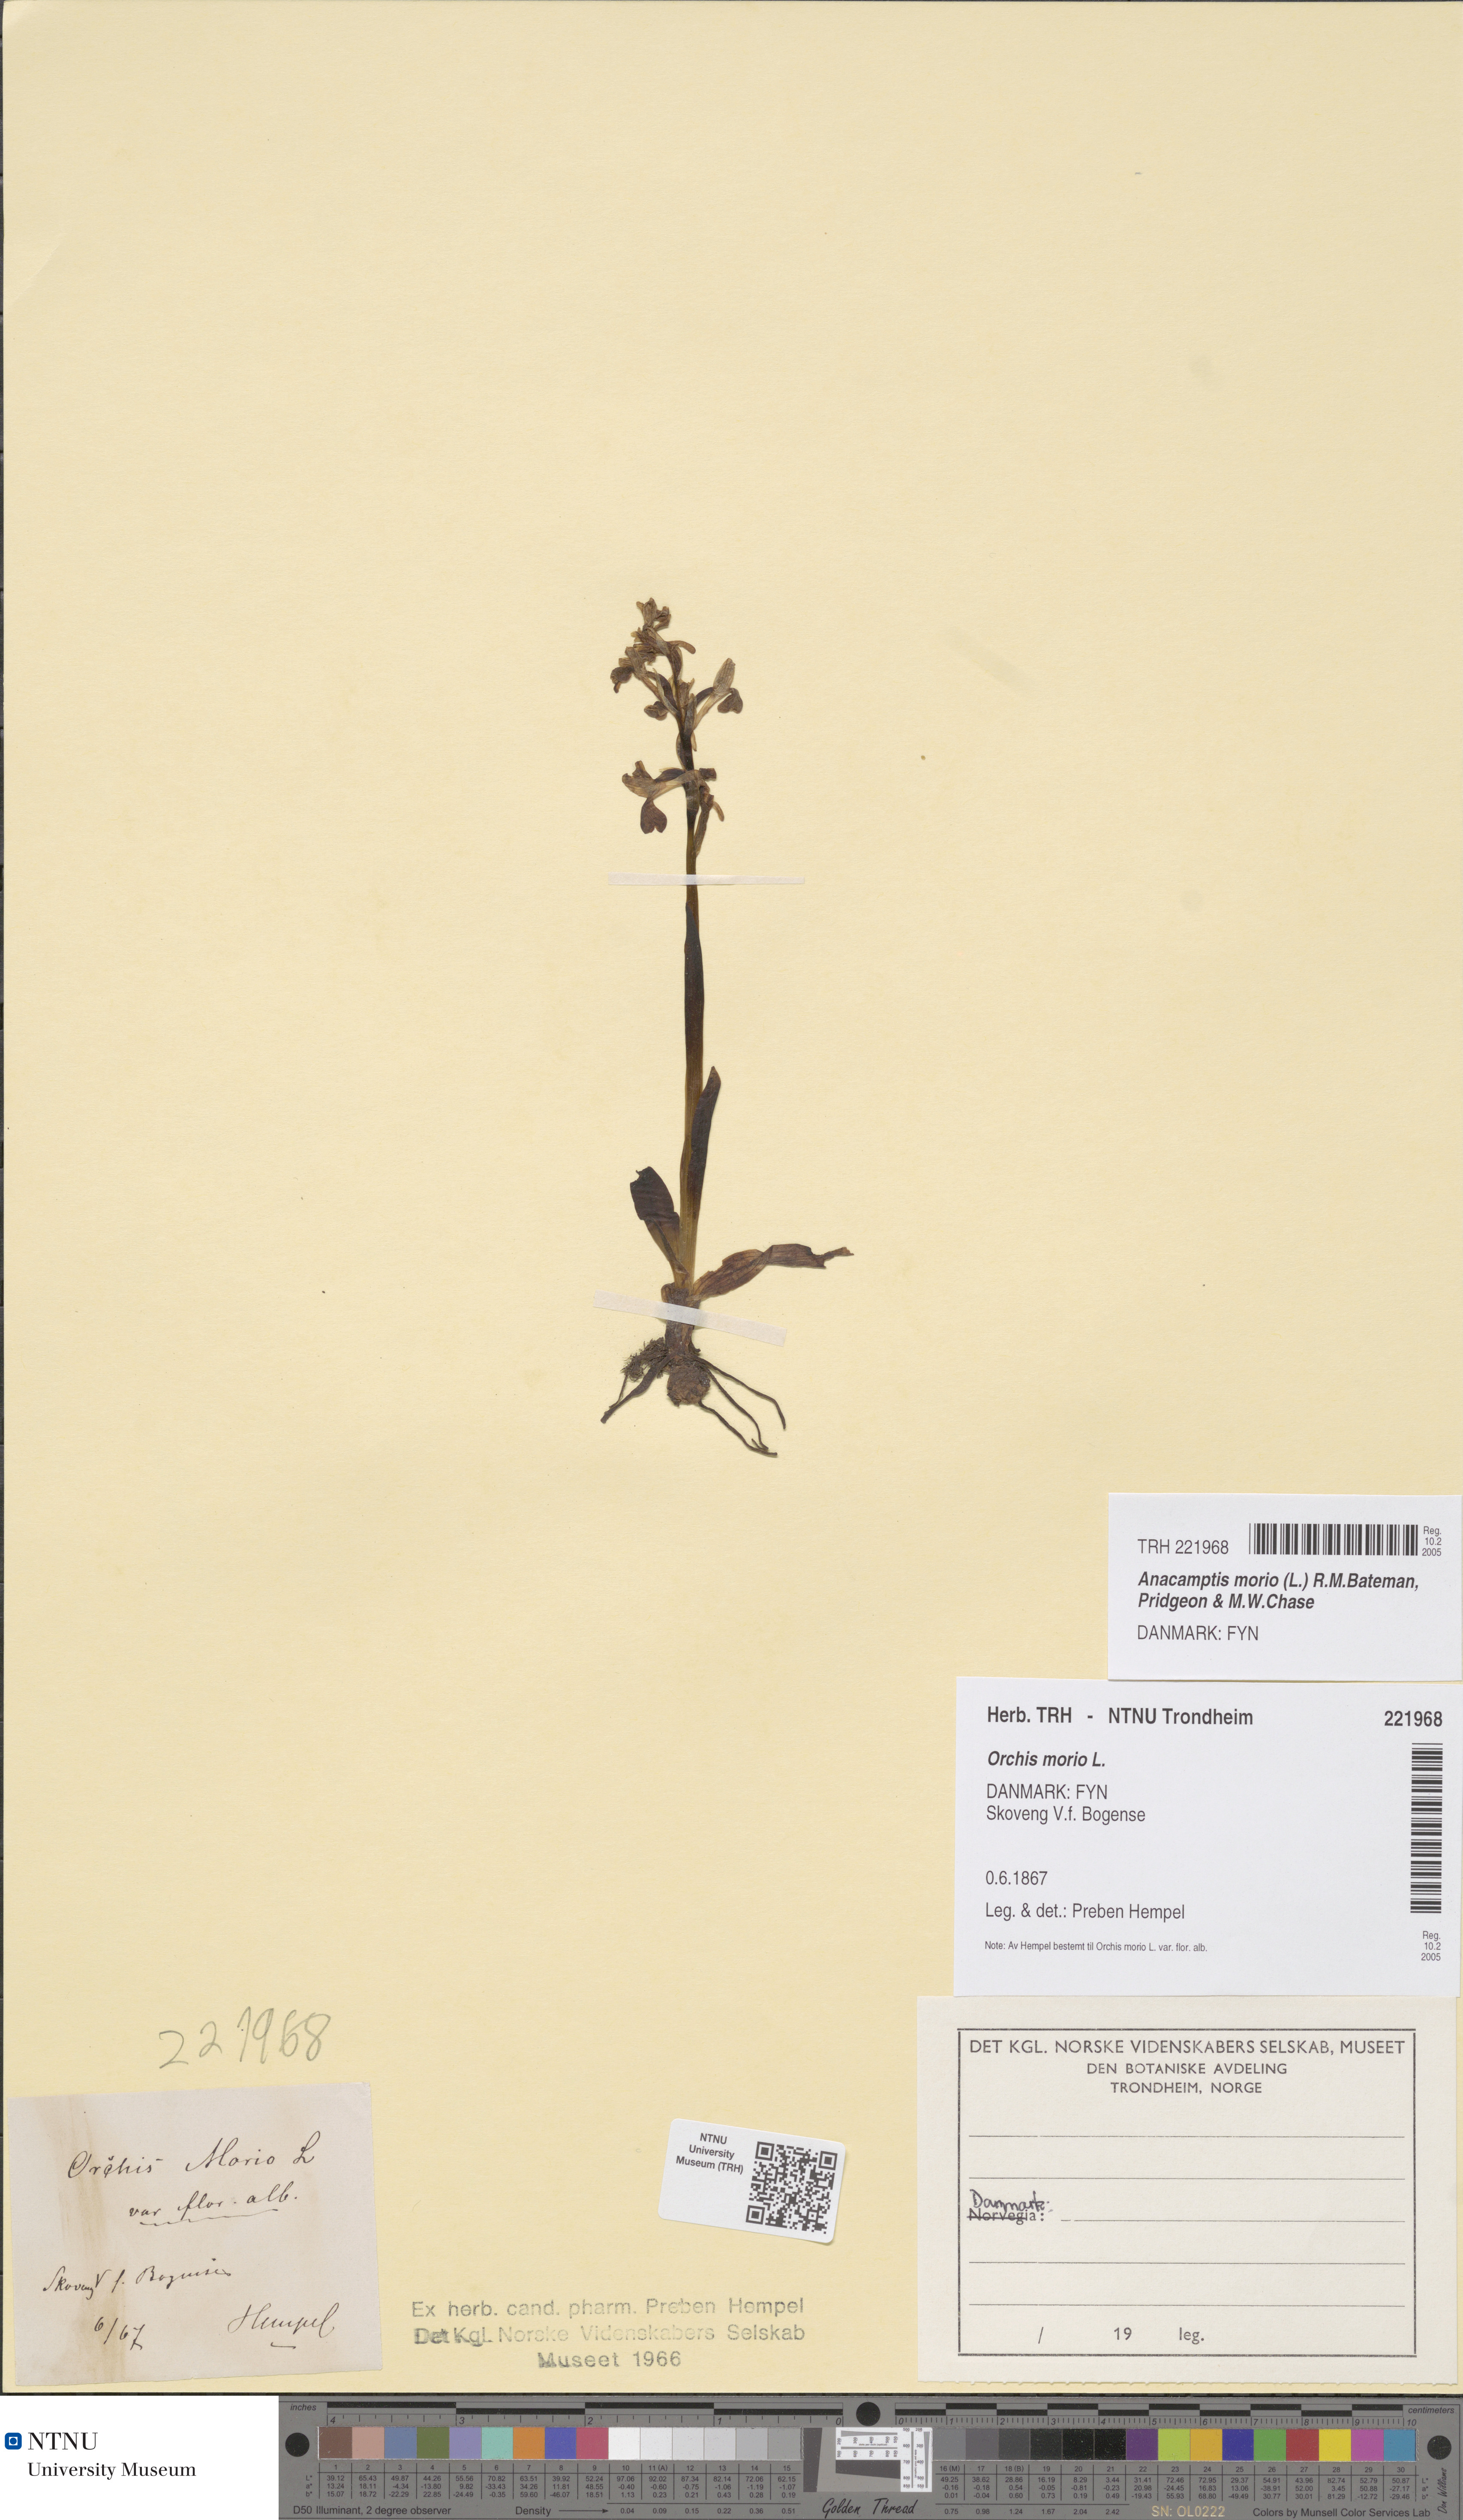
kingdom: Plantae
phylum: Tracheophyta
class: Liliopsida
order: Asparagales
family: Orchidaceae
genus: Anacamptis
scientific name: Anacamptis morio
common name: Green-winged orchid
